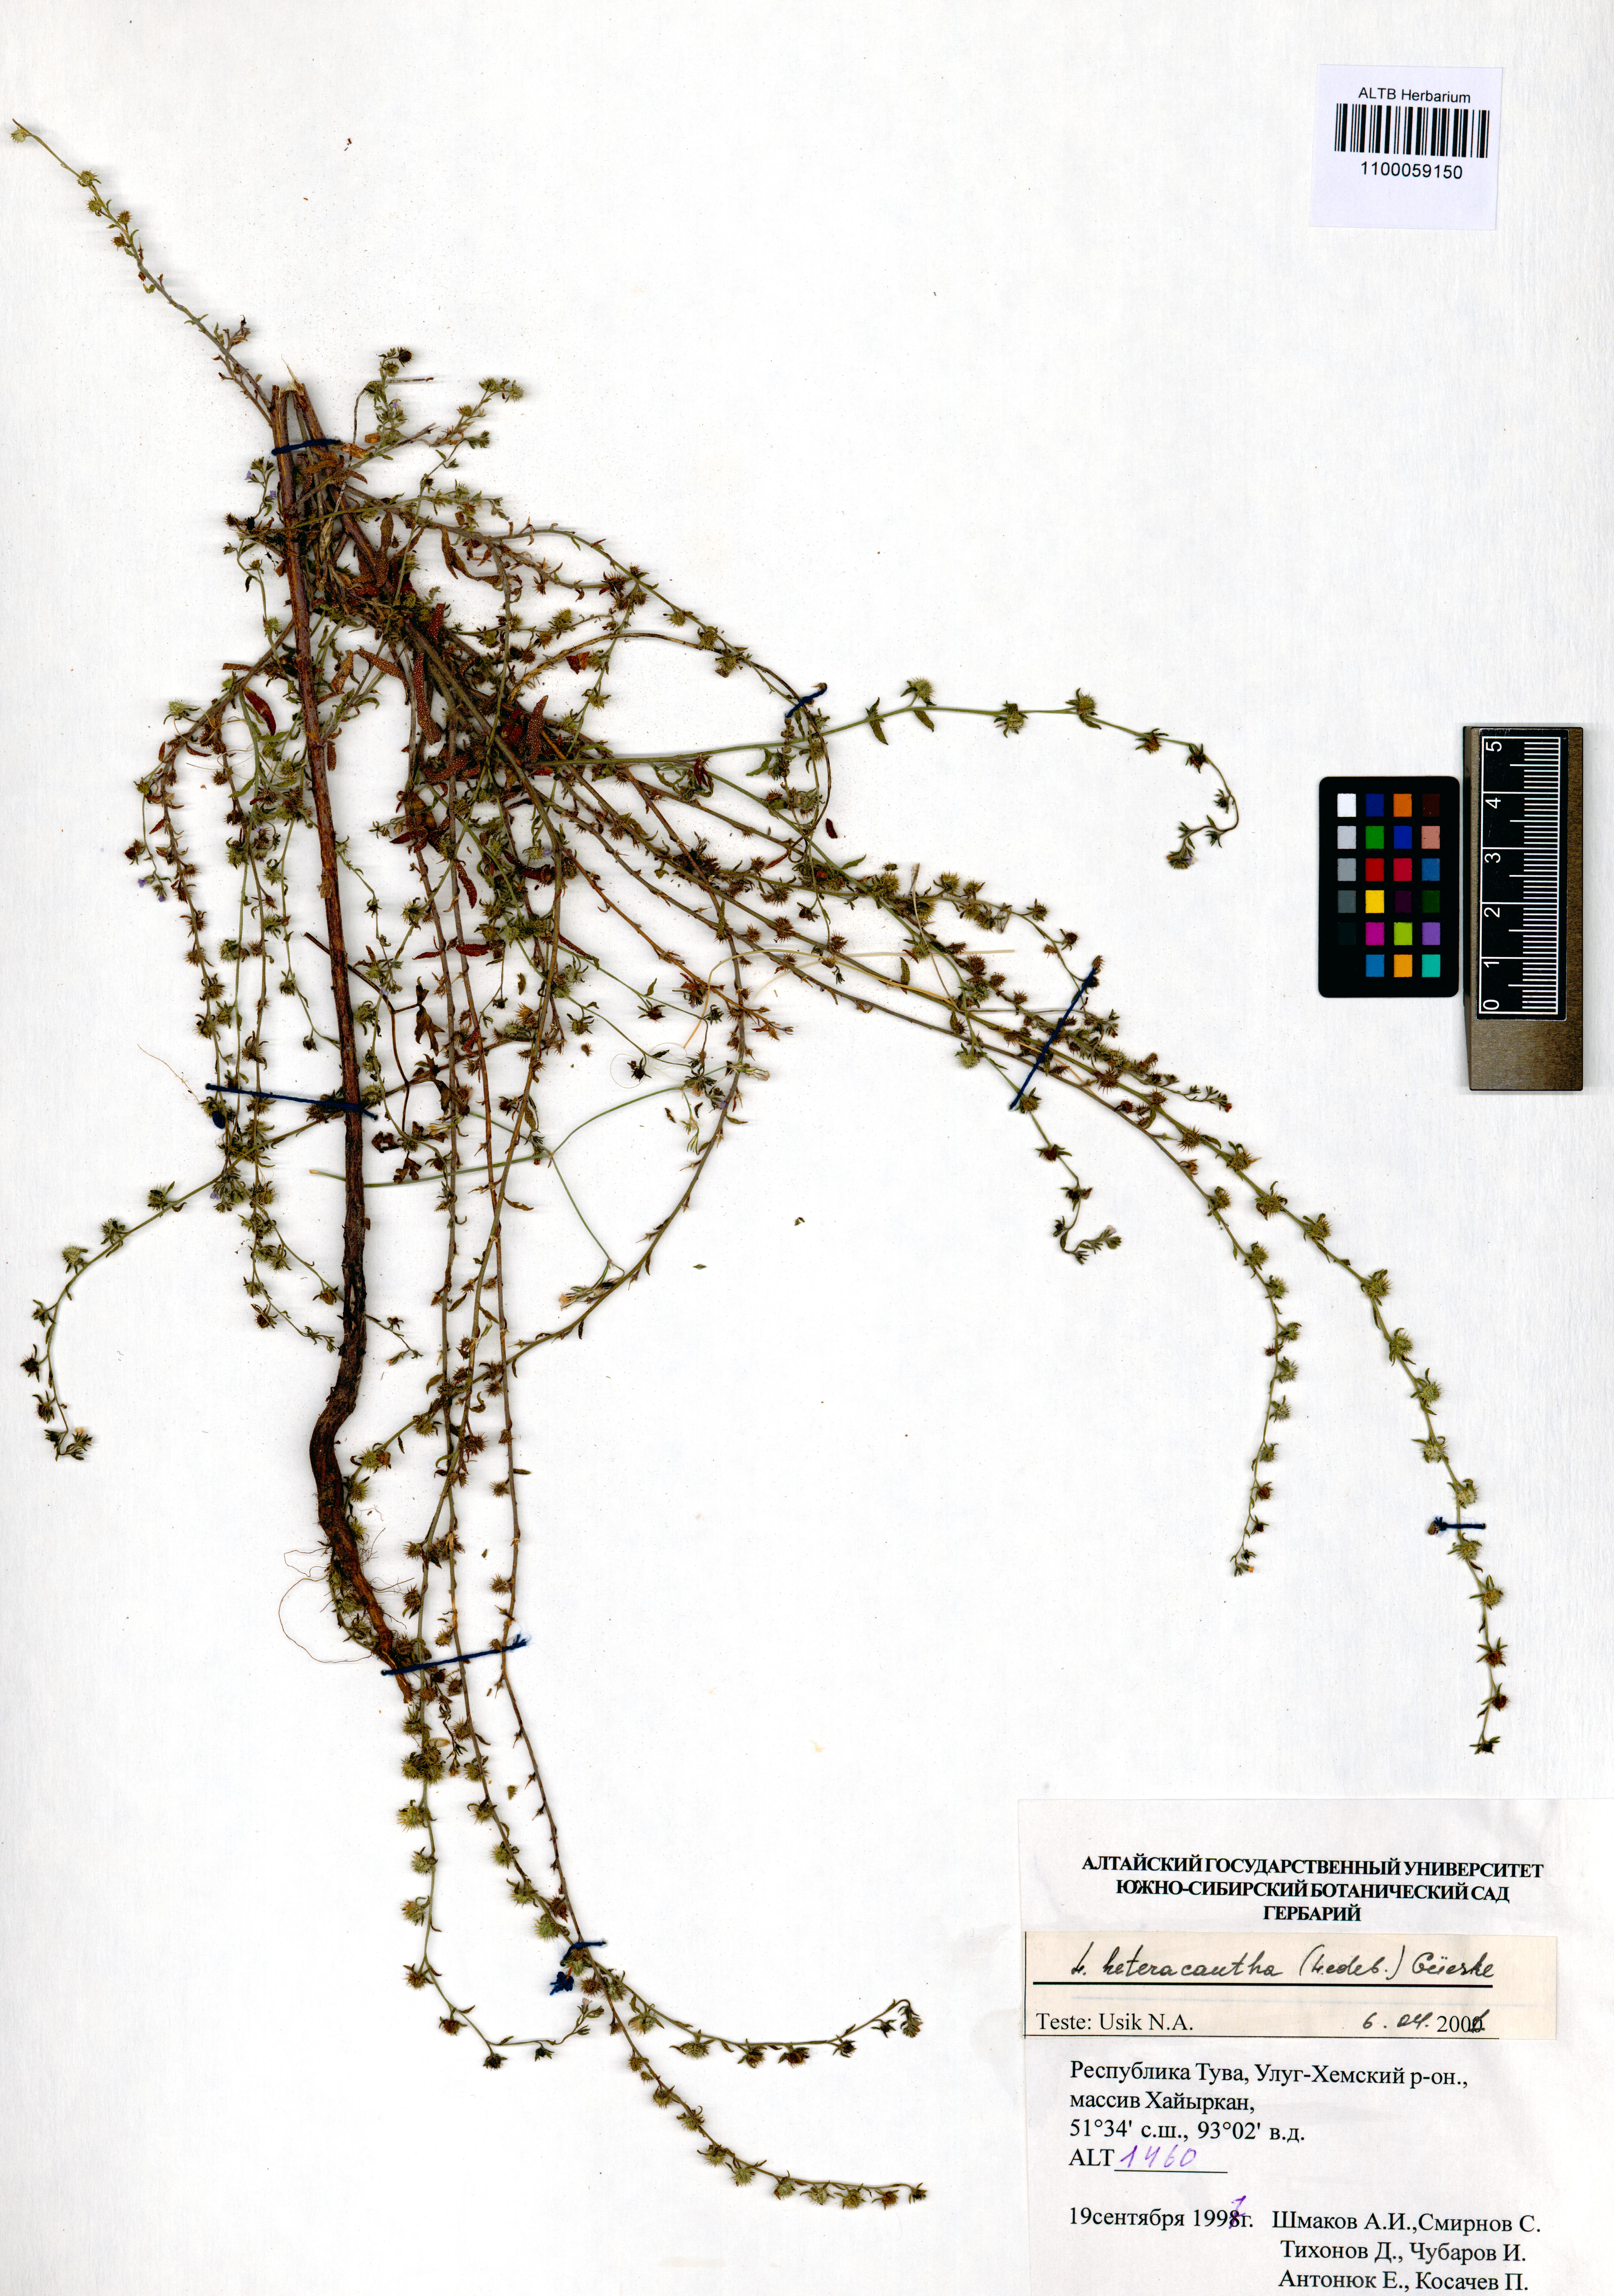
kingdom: Plantae
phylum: Tracheophyta
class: Magnoliopsida
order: Boraginales
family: Boraginaceae
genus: Lappula
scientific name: Lappula heteracantha
